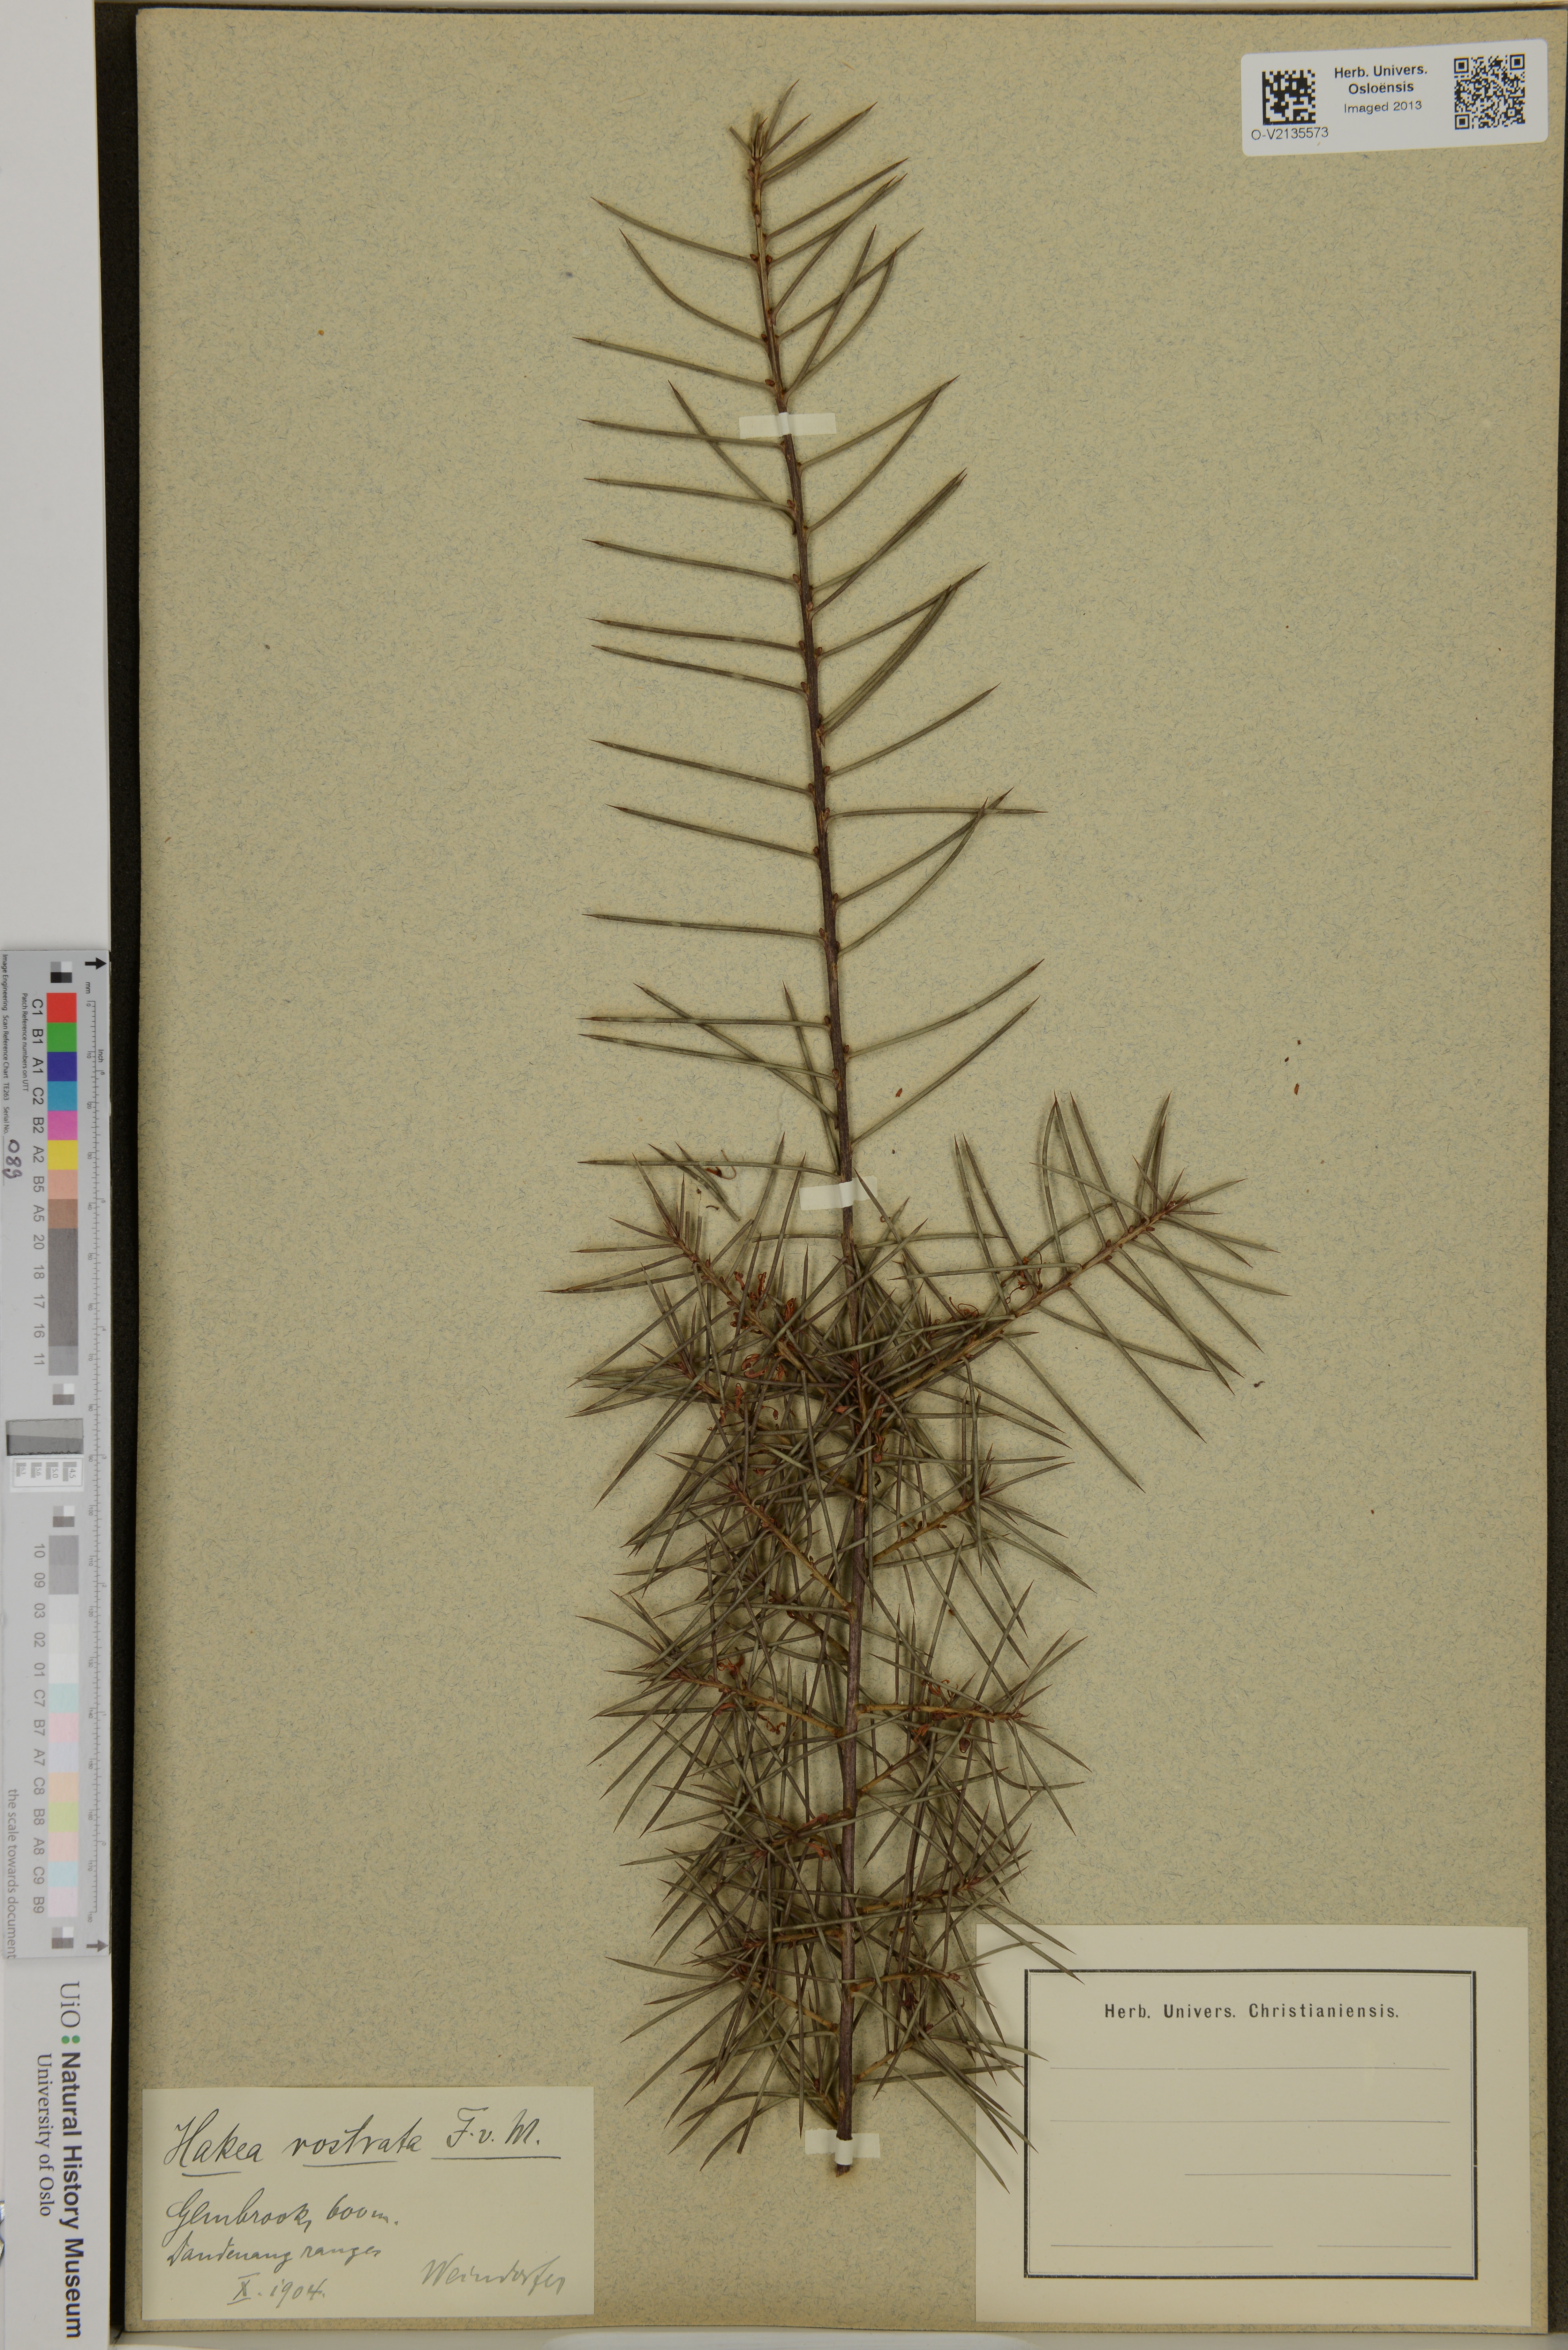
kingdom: Plantae
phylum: Tracheophyta
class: Magnoliopsida
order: Proteales
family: Proteaceae
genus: Hakea
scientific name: Hakea rostrata
